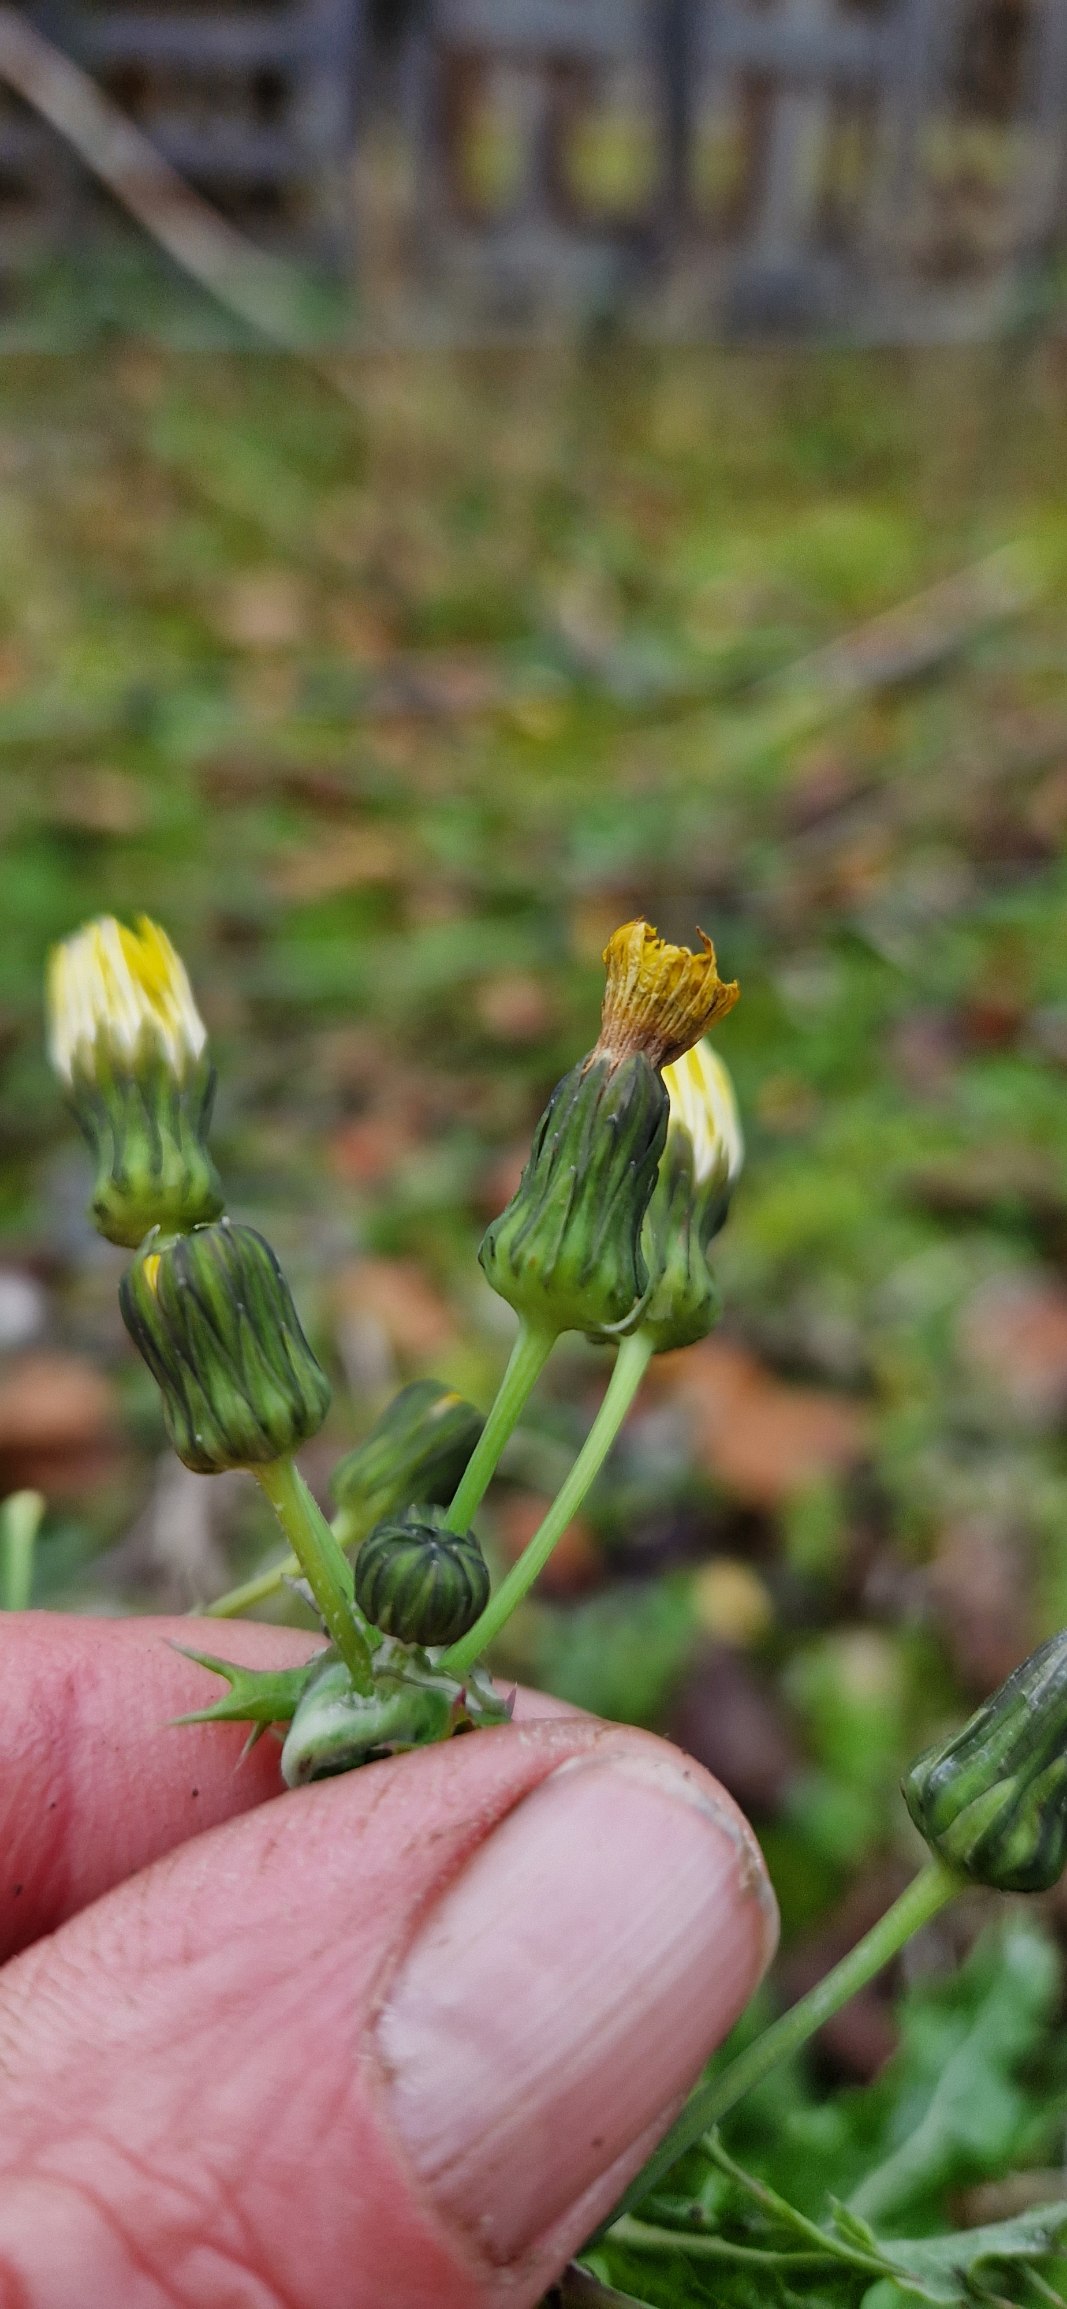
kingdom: Plantae
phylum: Tracheophyta
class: Magnoliopsida
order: Asterales
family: Asteraceae
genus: Sonchus
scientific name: Sonchus asper
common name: Ru svinemælk
